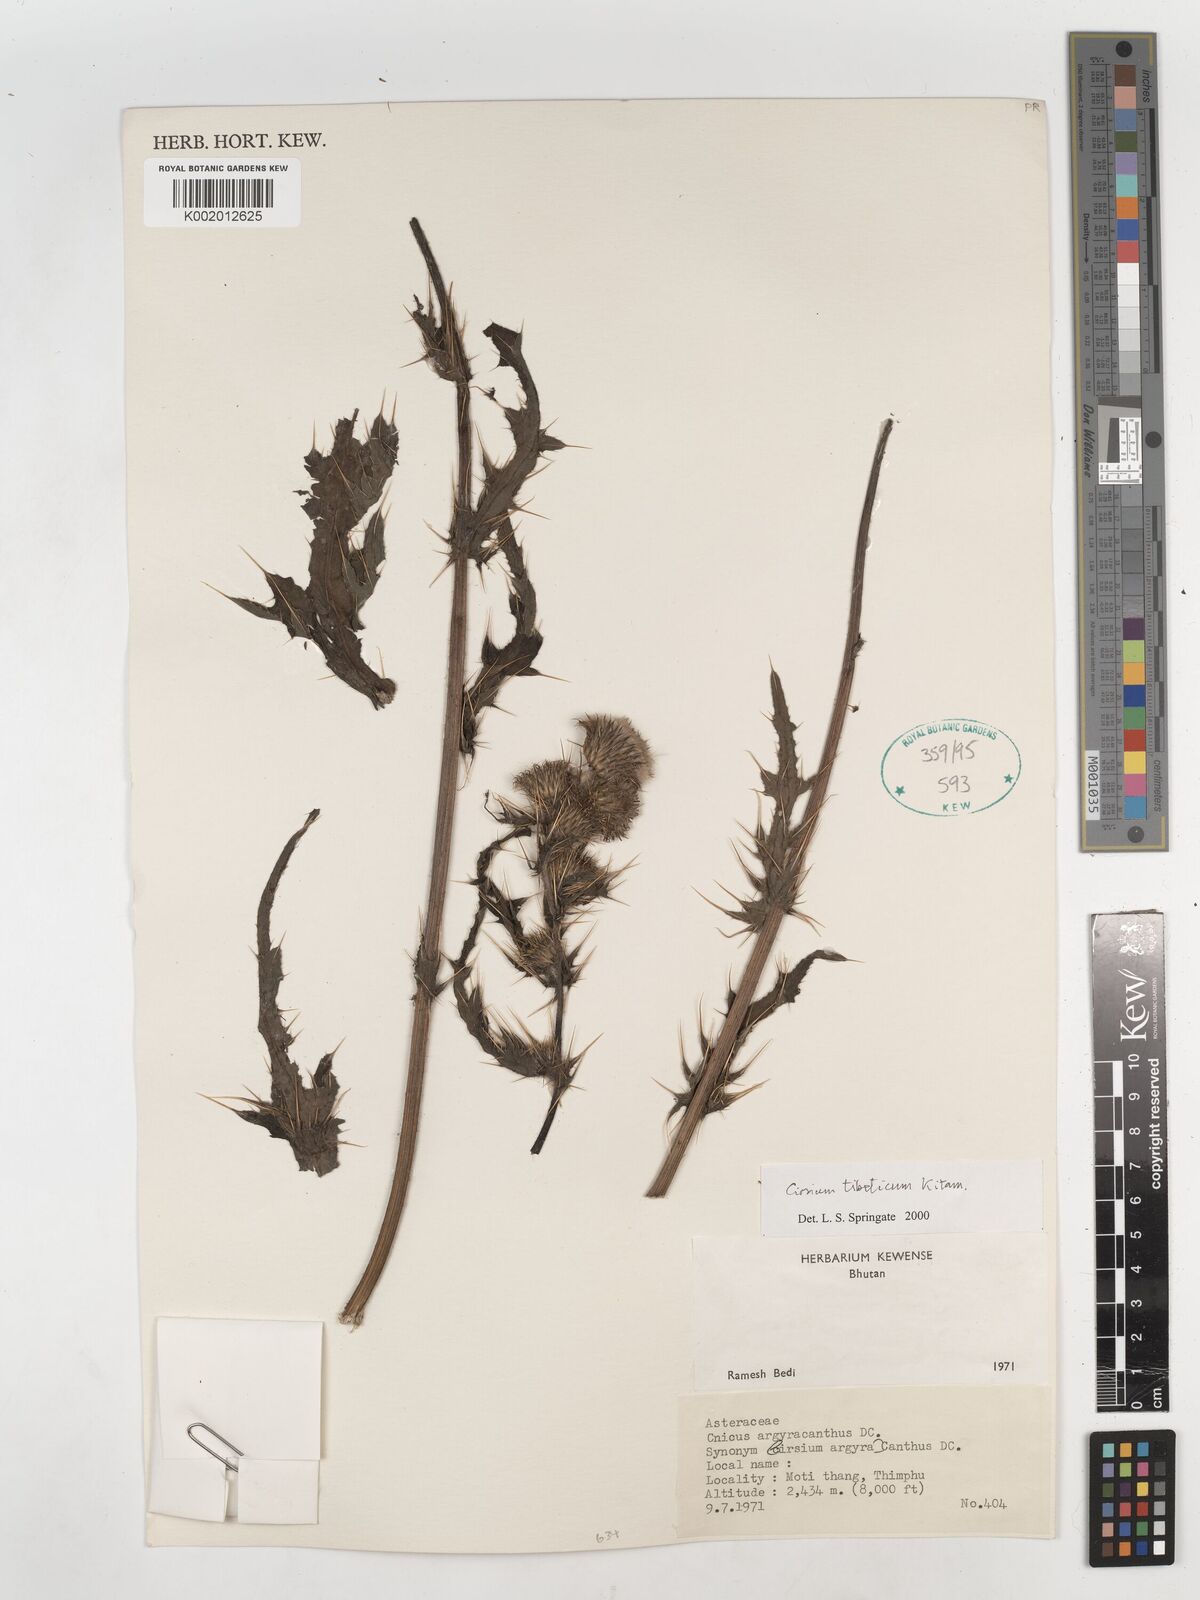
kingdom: Plantae
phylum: Tracheophyta
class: Magnoliopsida
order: Asterales
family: Asteraceae
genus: Cirsium
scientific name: Cirsium wallichii
